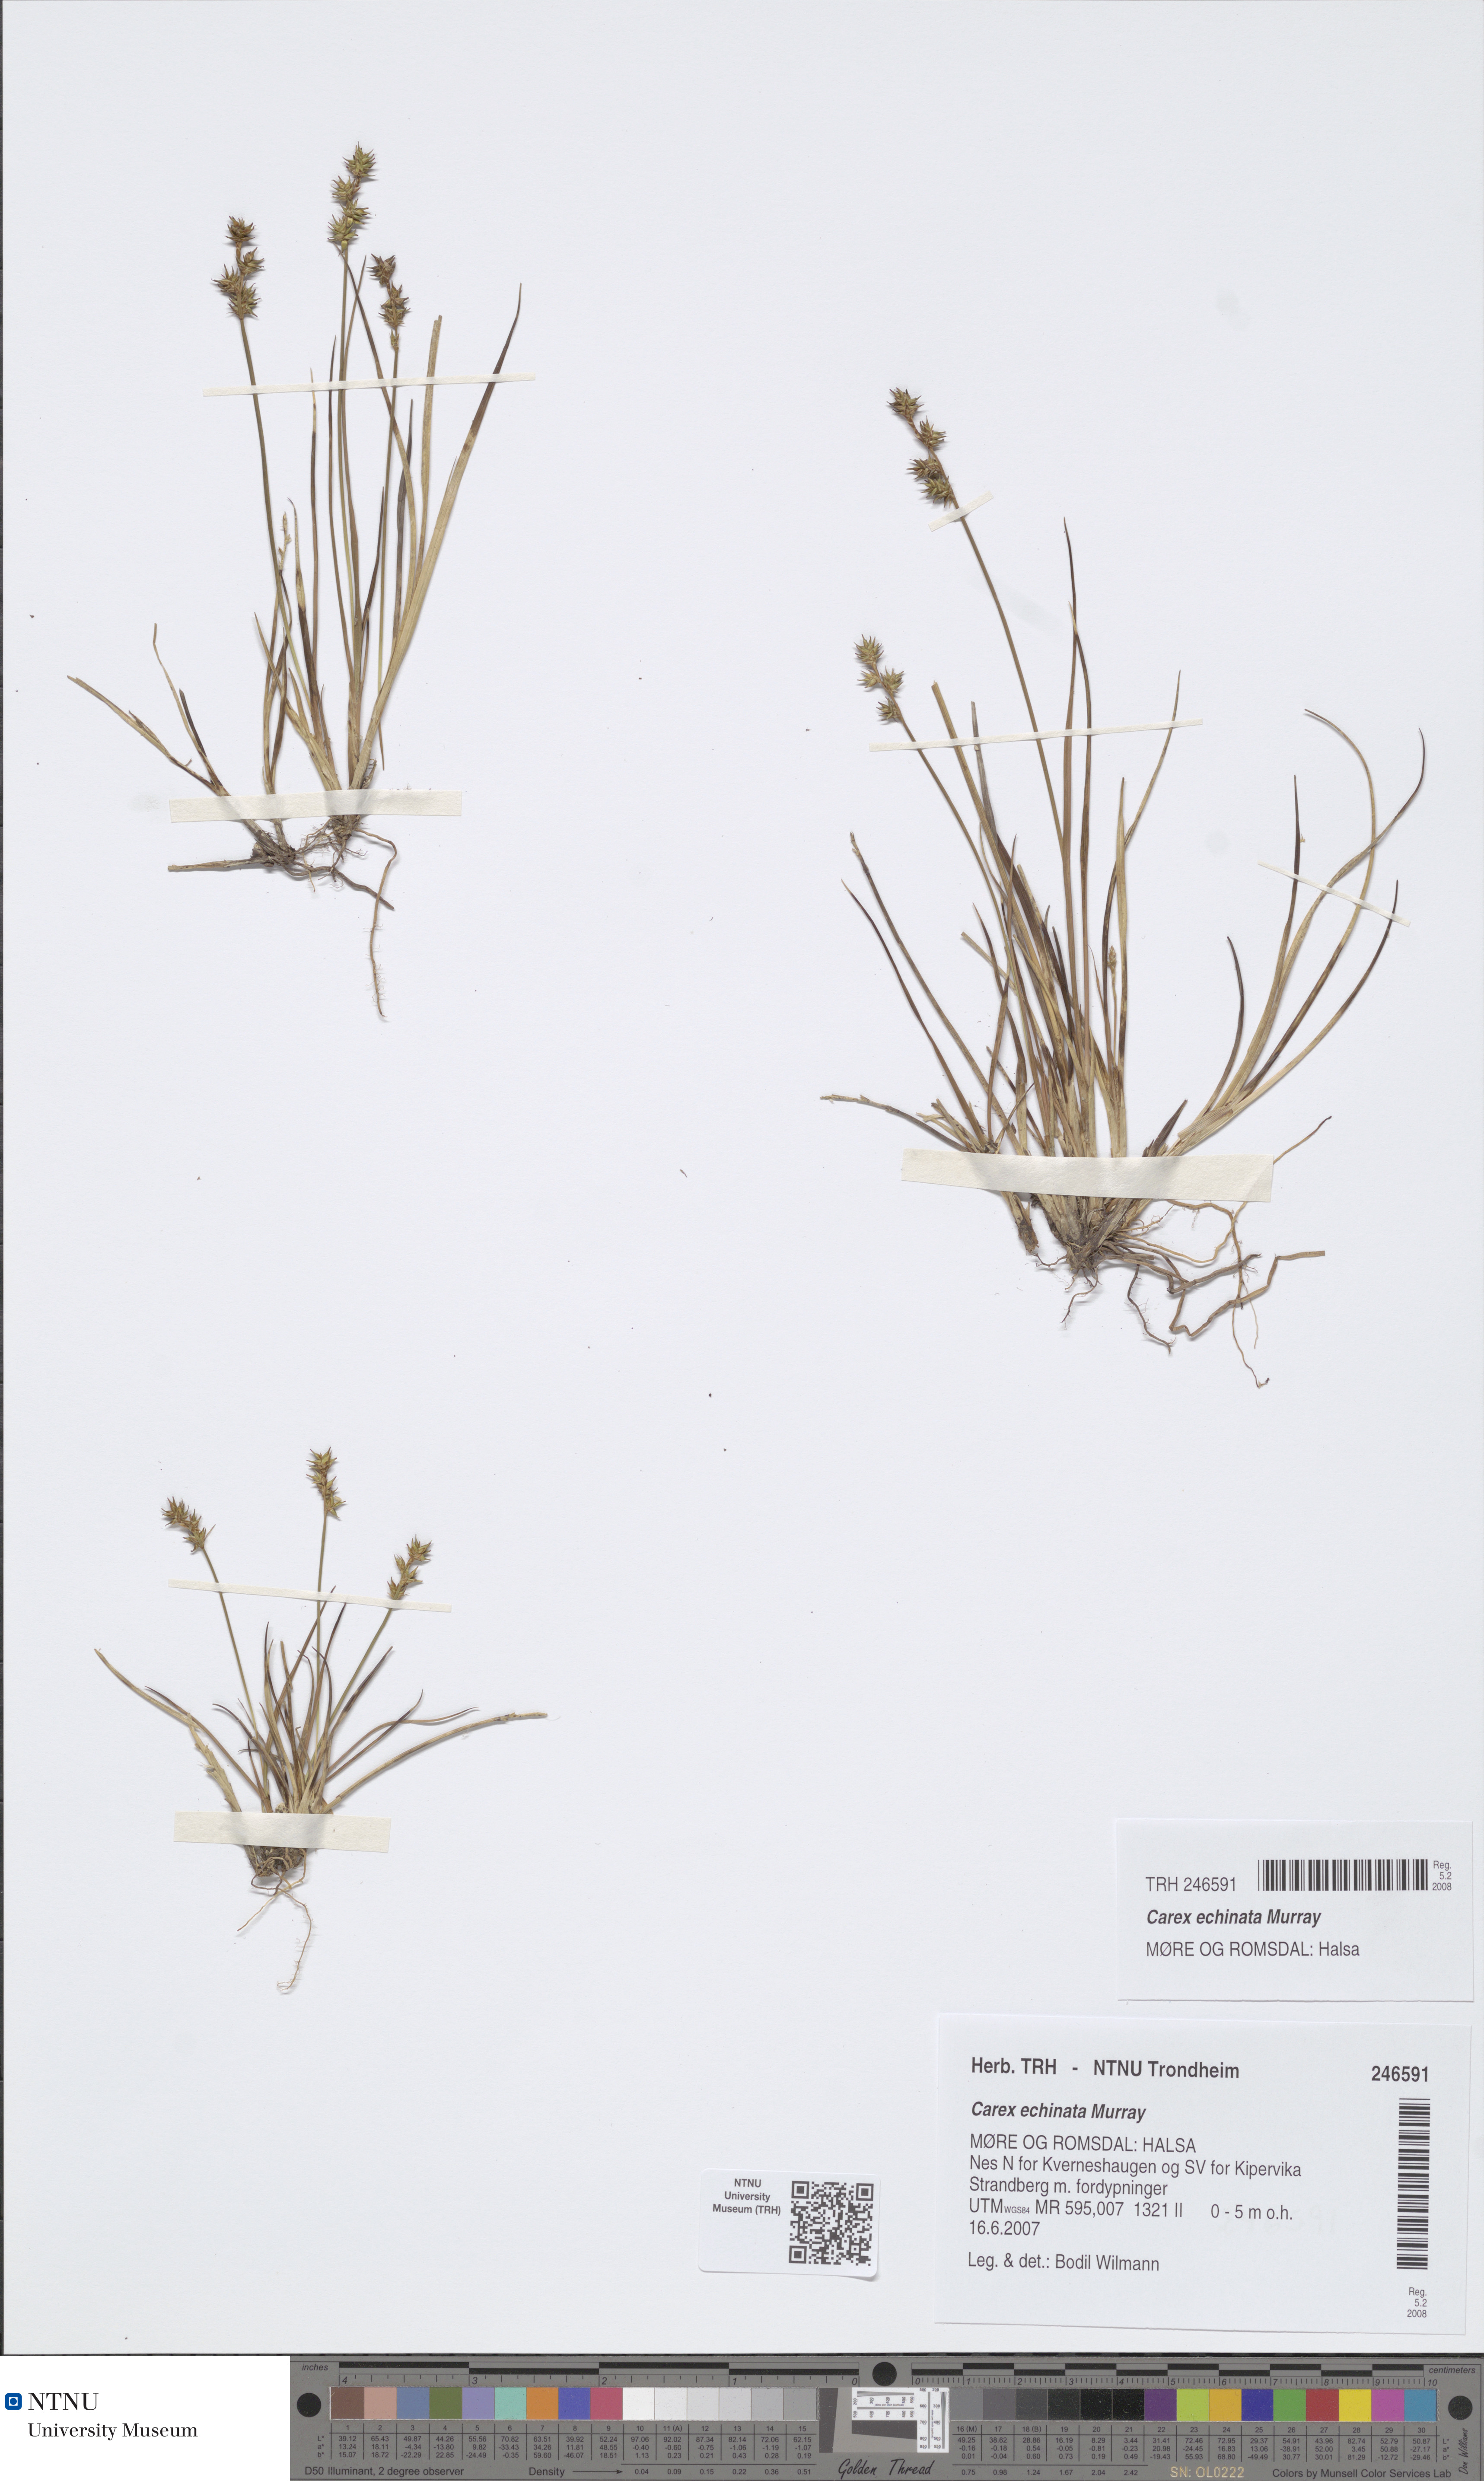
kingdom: Plantae
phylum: Tracheophyta
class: Liliopsida
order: Poales
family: Cyperaceae
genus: Carex
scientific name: Carex echinata
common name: Star sedge
